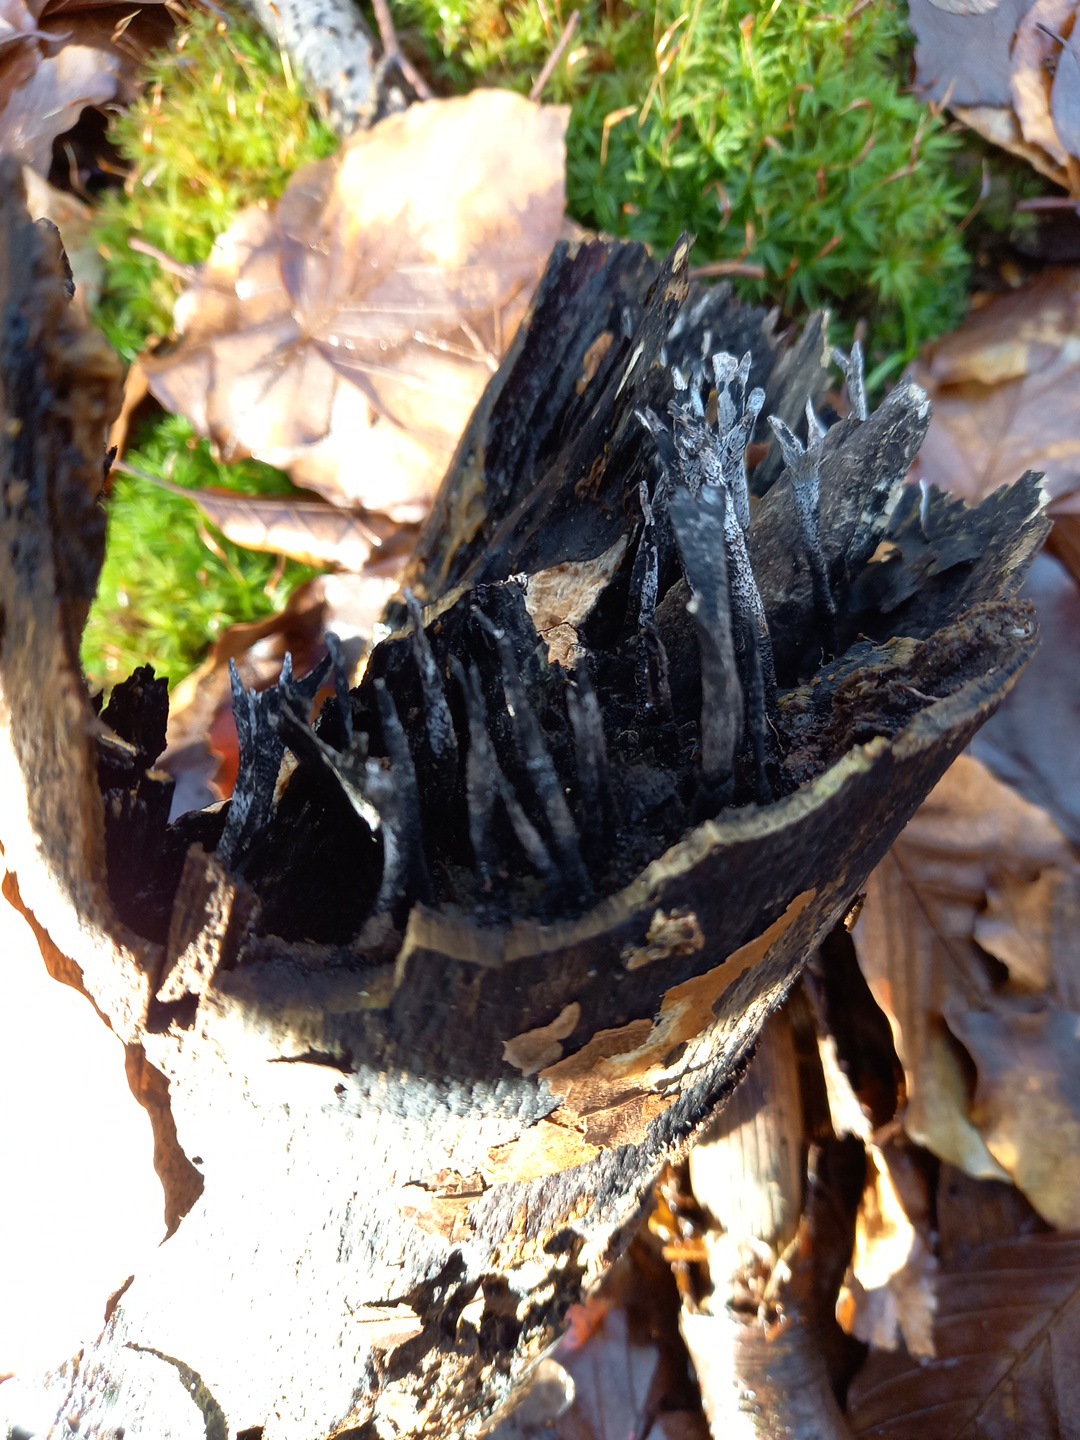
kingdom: Fungi
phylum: Ascomycota
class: Sordariomycetes
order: Xylariales
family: Xylariaceae
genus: Xylaria
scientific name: Xylaria hypoxylon
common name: grenet stødsvamp
